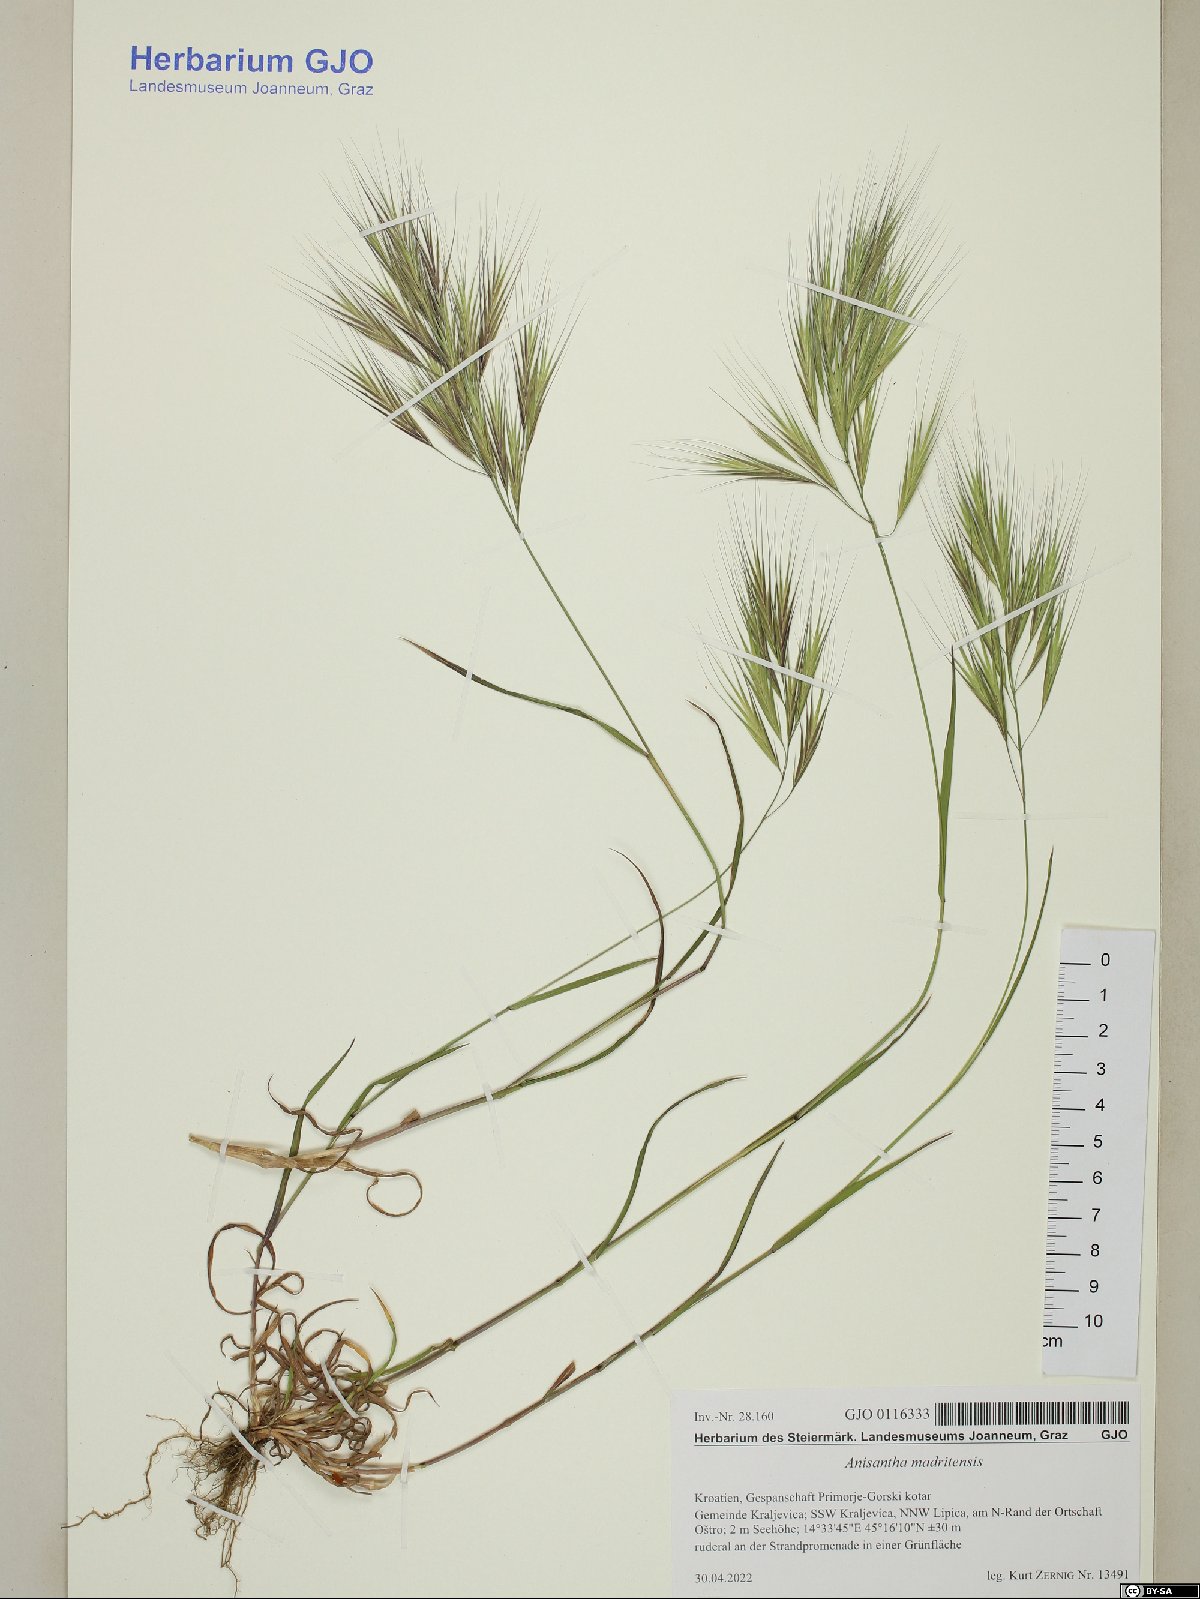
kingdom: Plantae
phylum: Tracheophyta
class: Liliopsida
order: Poales
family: Poaceae
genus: Bromus
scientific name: Bromus madritensis
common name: Compact brome
